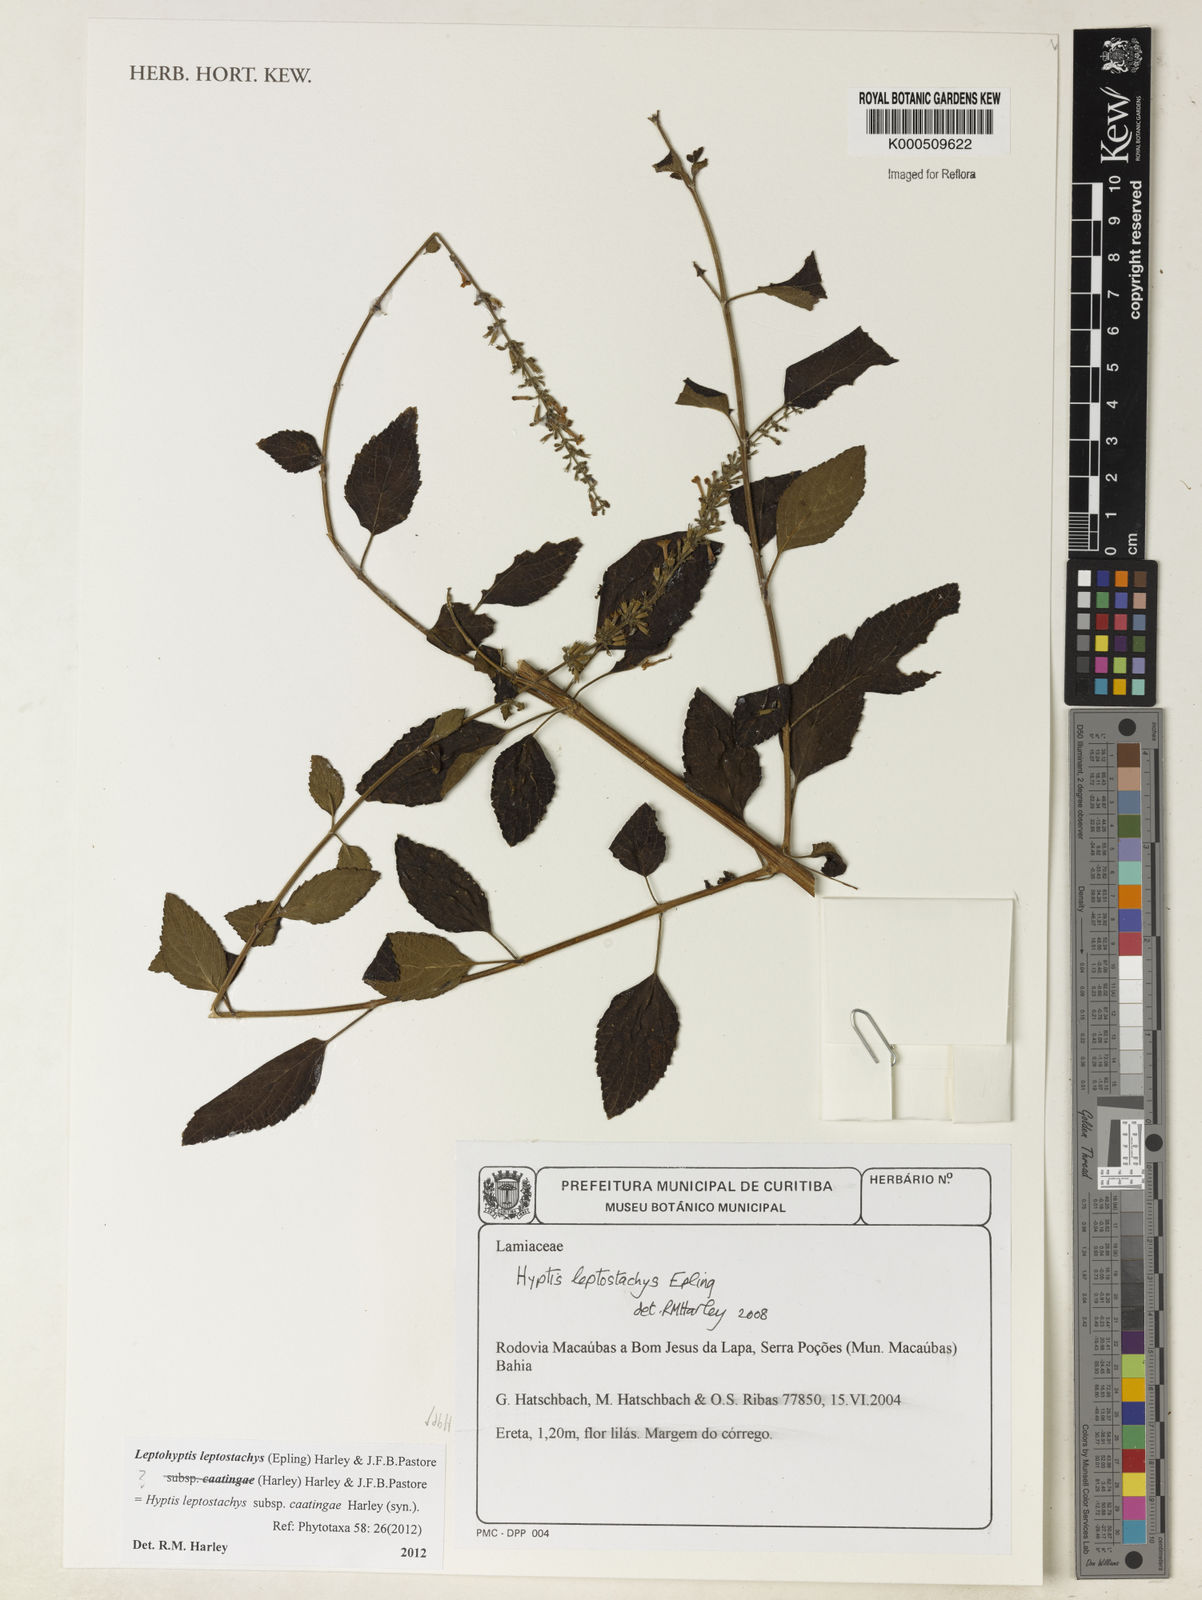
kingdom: Plantae
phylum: Tracheophyta
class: Magnoliopsida
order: Lamiales
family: Lamiaceae
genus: Leptohyptis
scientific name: Leptohyptis leptostachys
